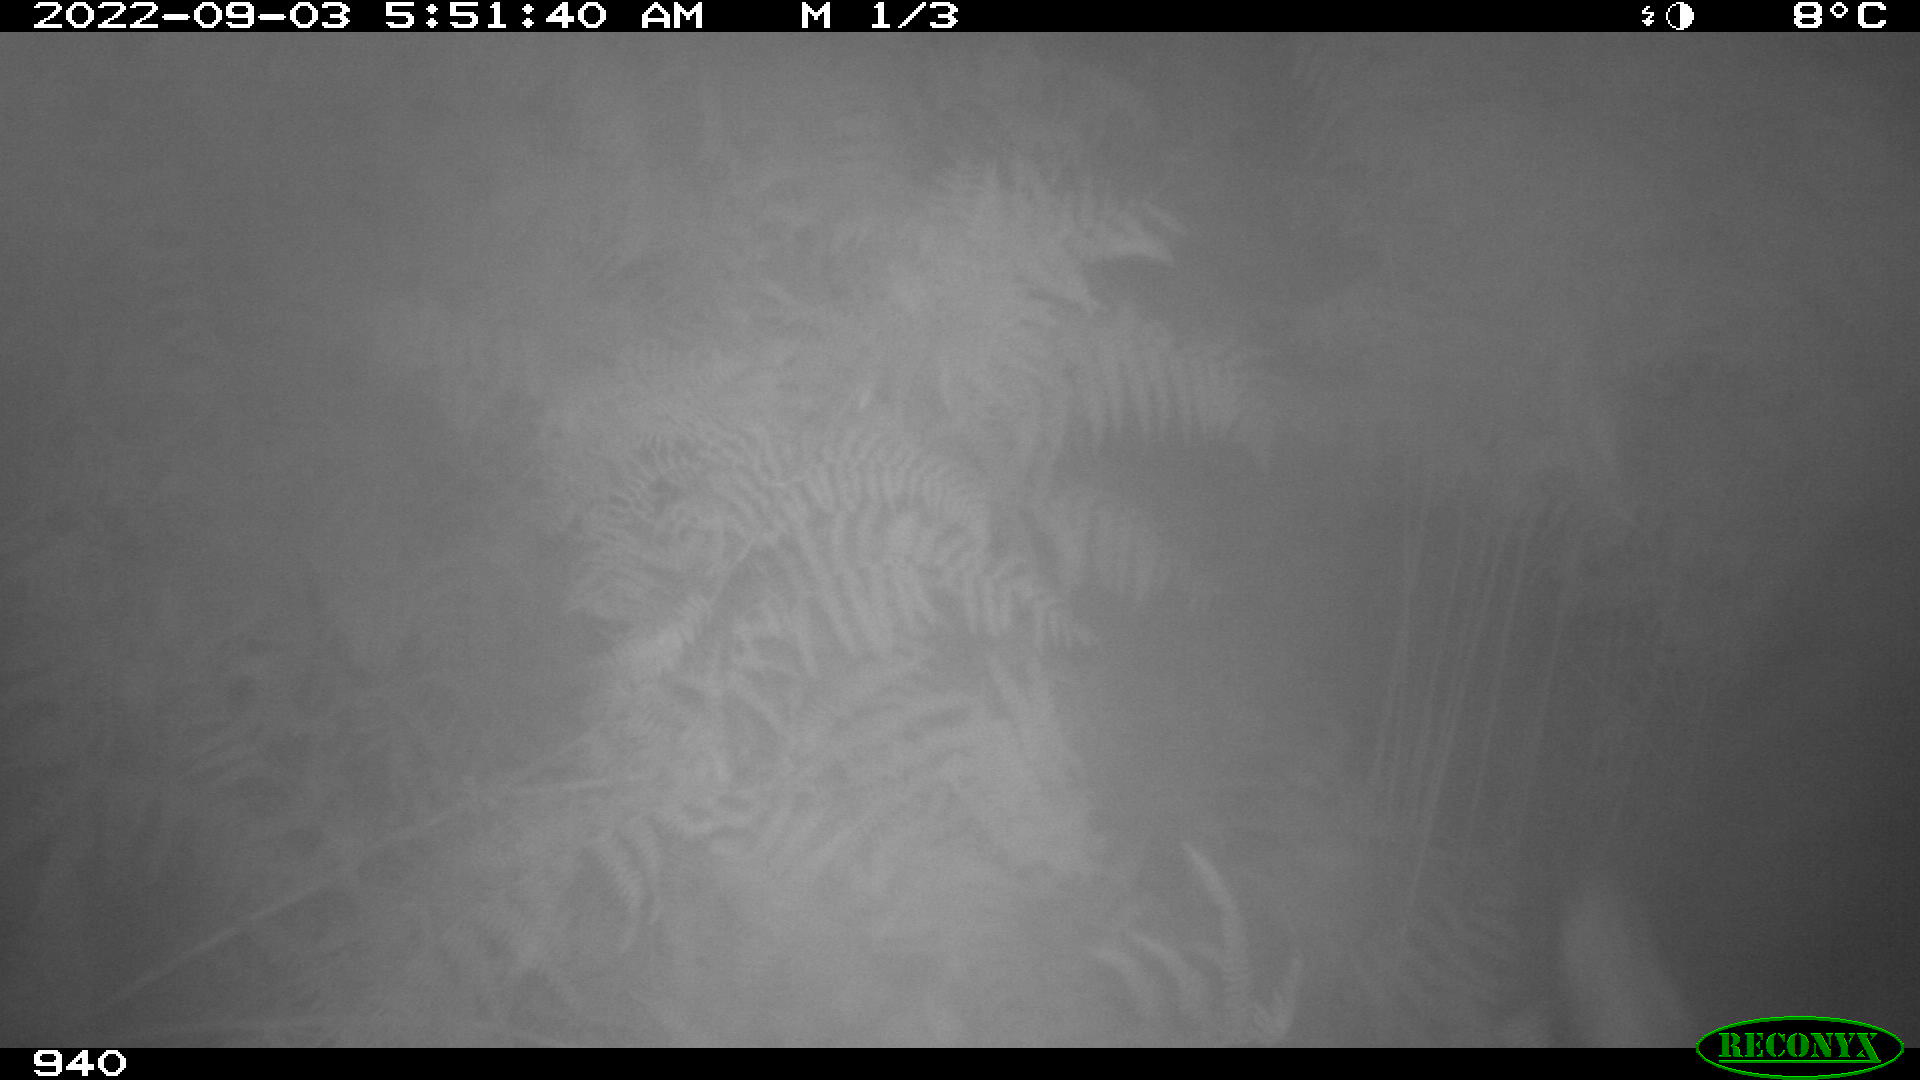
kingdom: Animalia
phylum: Chordata
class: Mammalia
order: Perissodactyla
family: Equidae
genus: Equus
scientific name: Equus caballus
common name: Horse
